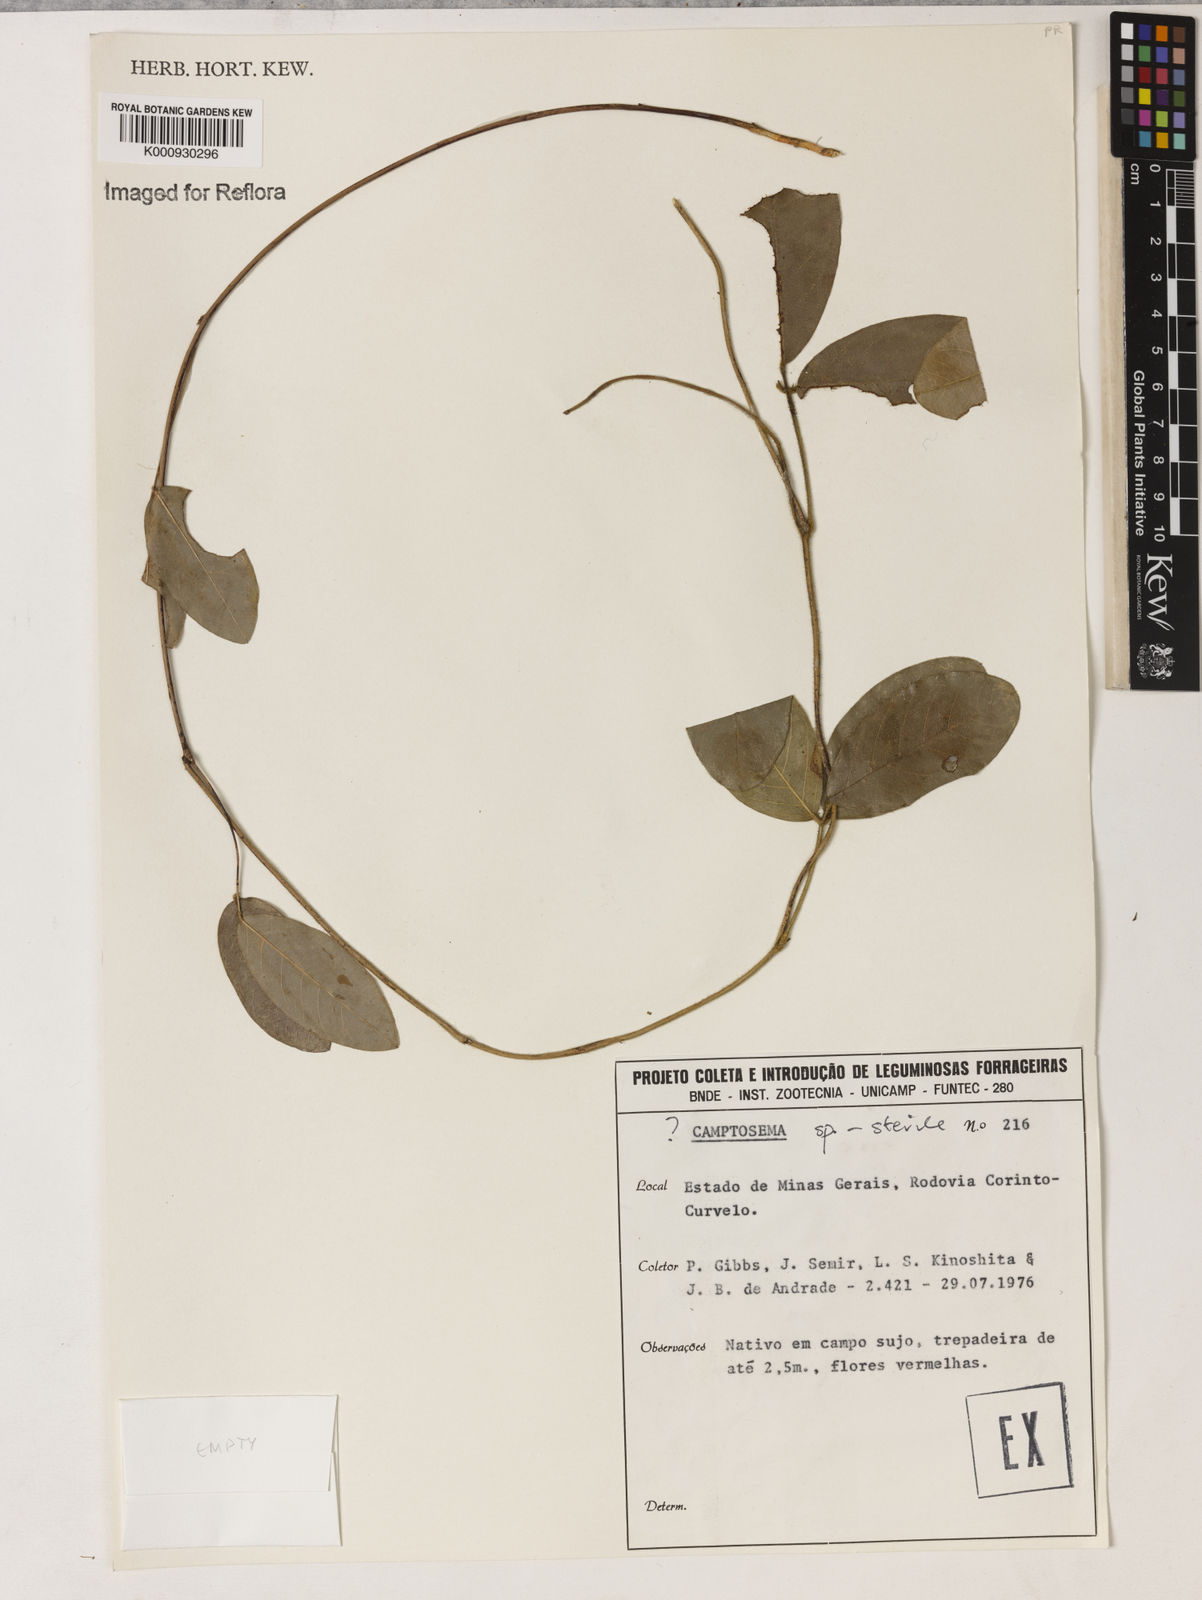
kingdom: Plantae
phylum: Tracheophyta
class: Magnoliopsida
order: Fabales
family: Fabaceae
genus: Camptosema
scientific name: Camptosema
